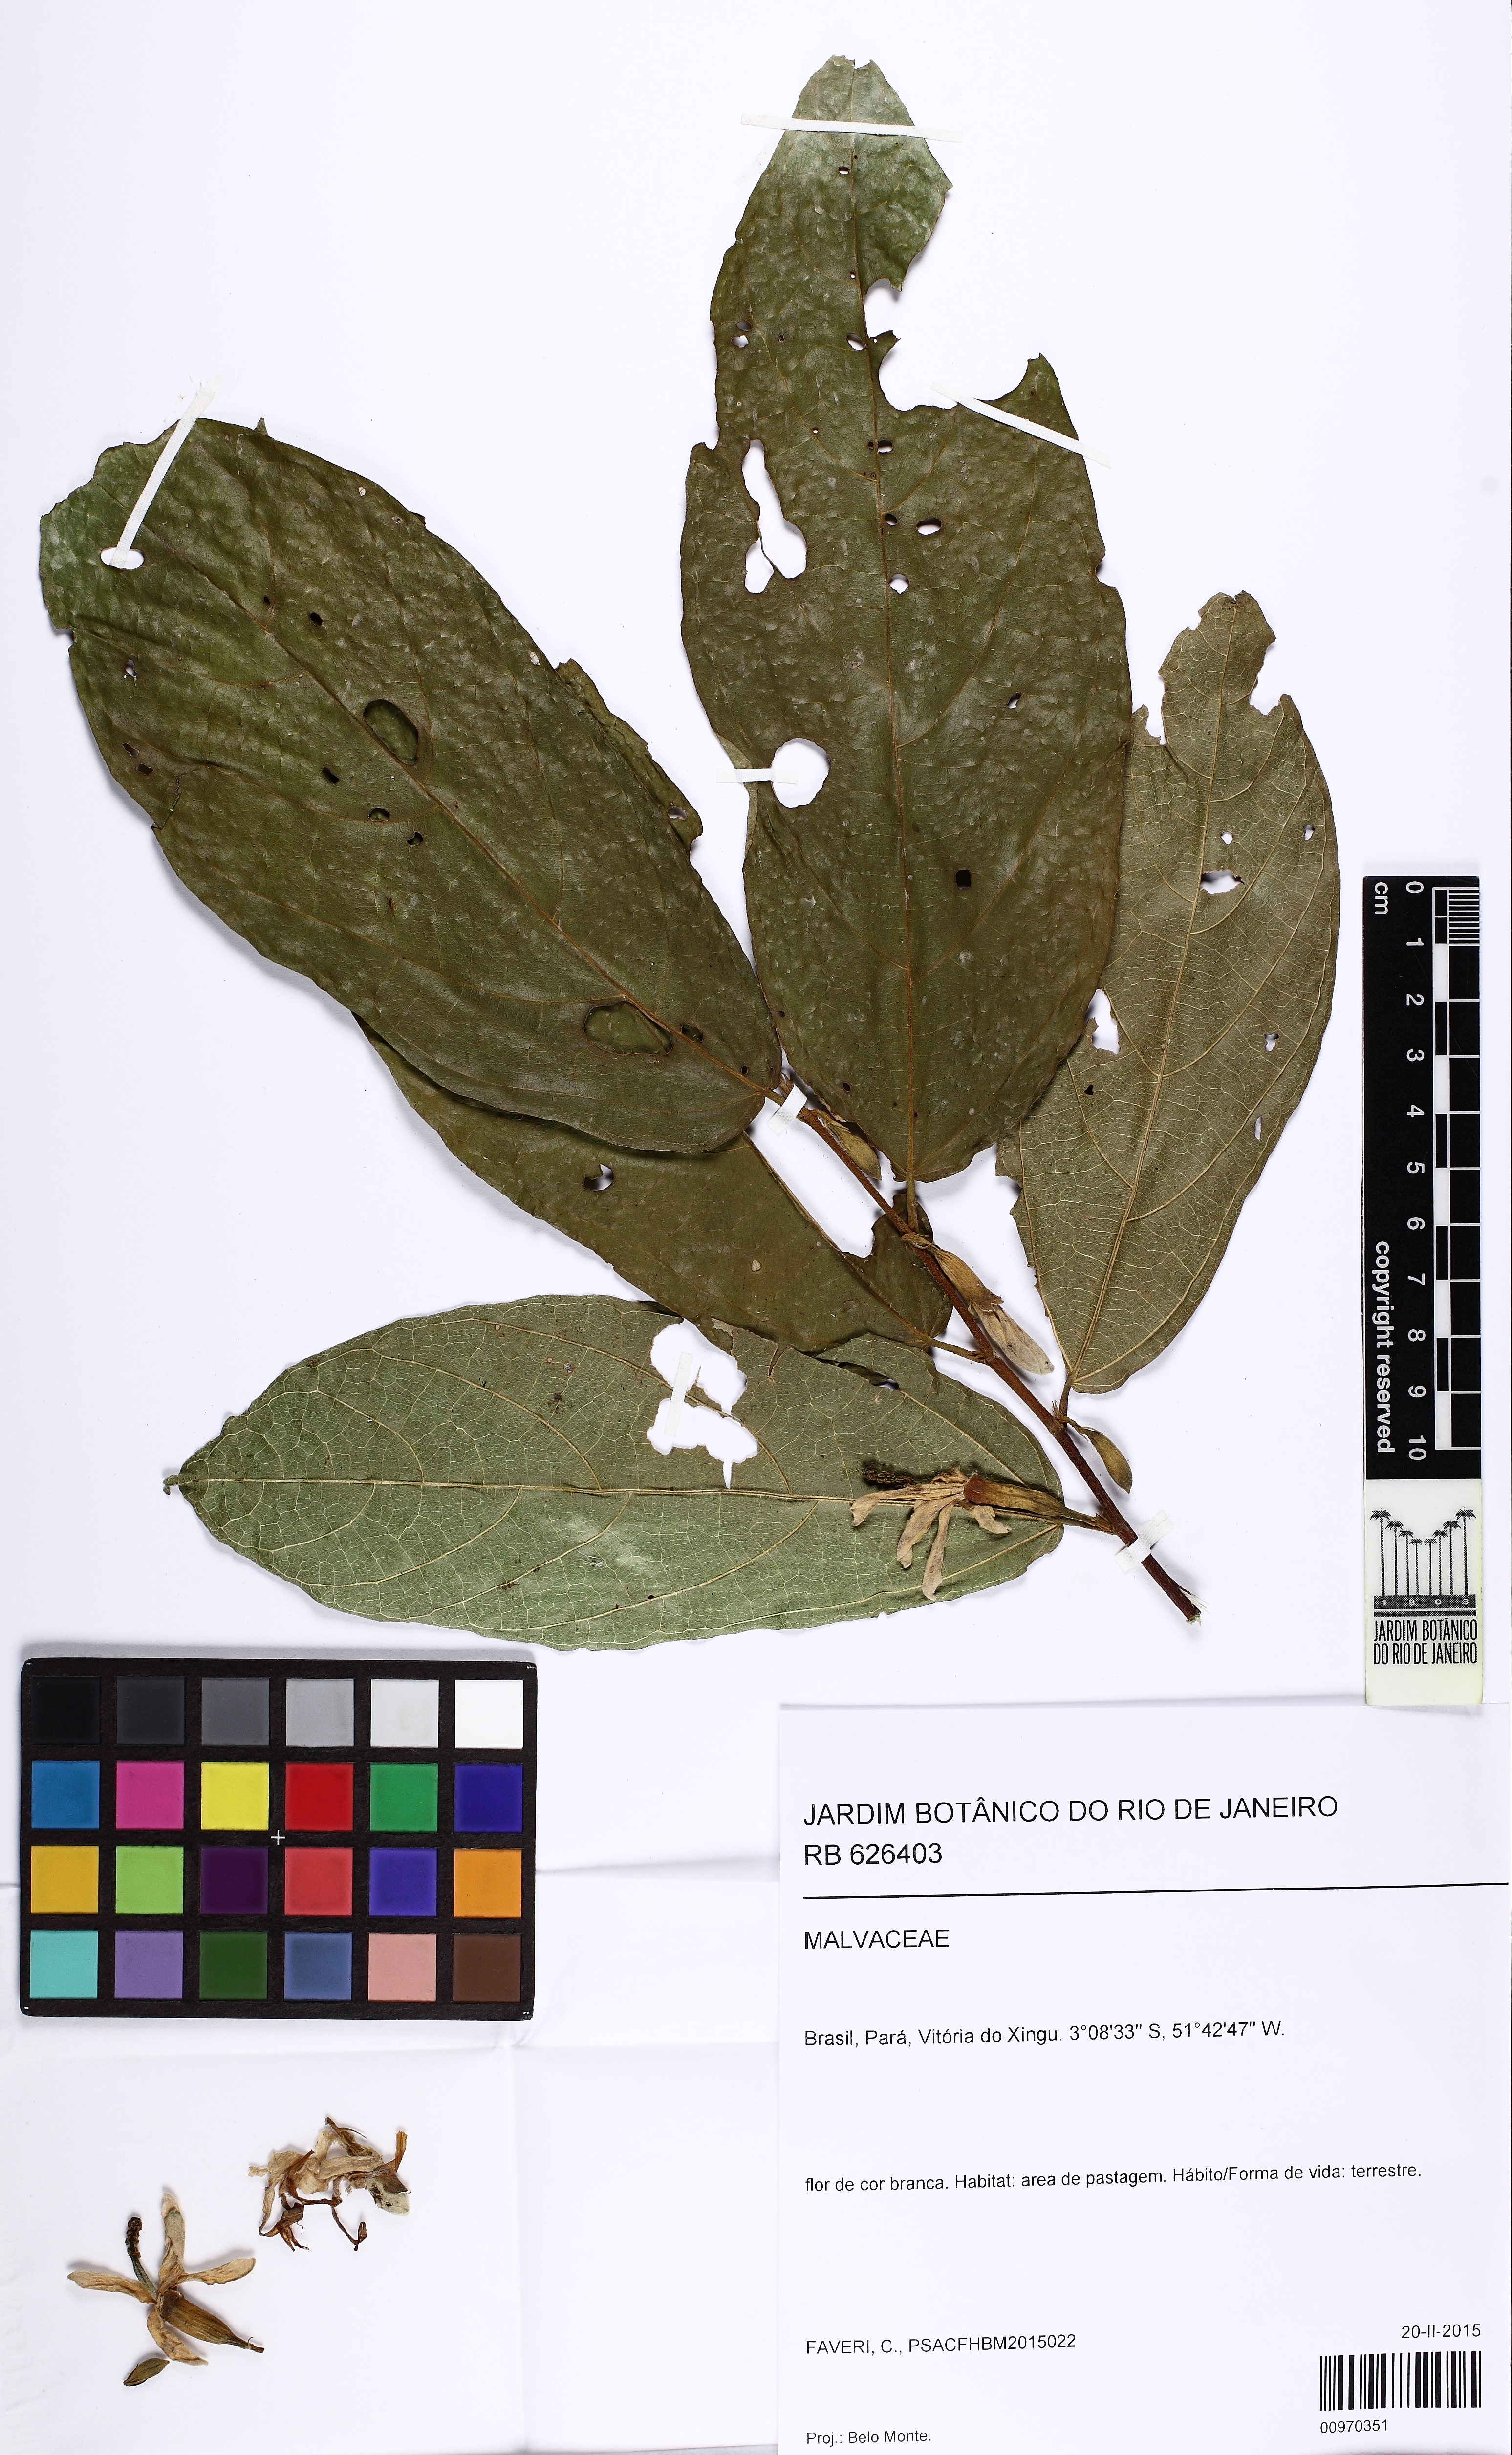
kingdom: Plantae
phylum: Tracheophyta
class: Magnoliopsida
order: Malvales
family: Malvaceae
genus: Quararibea
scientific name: Quararibea guianensis
